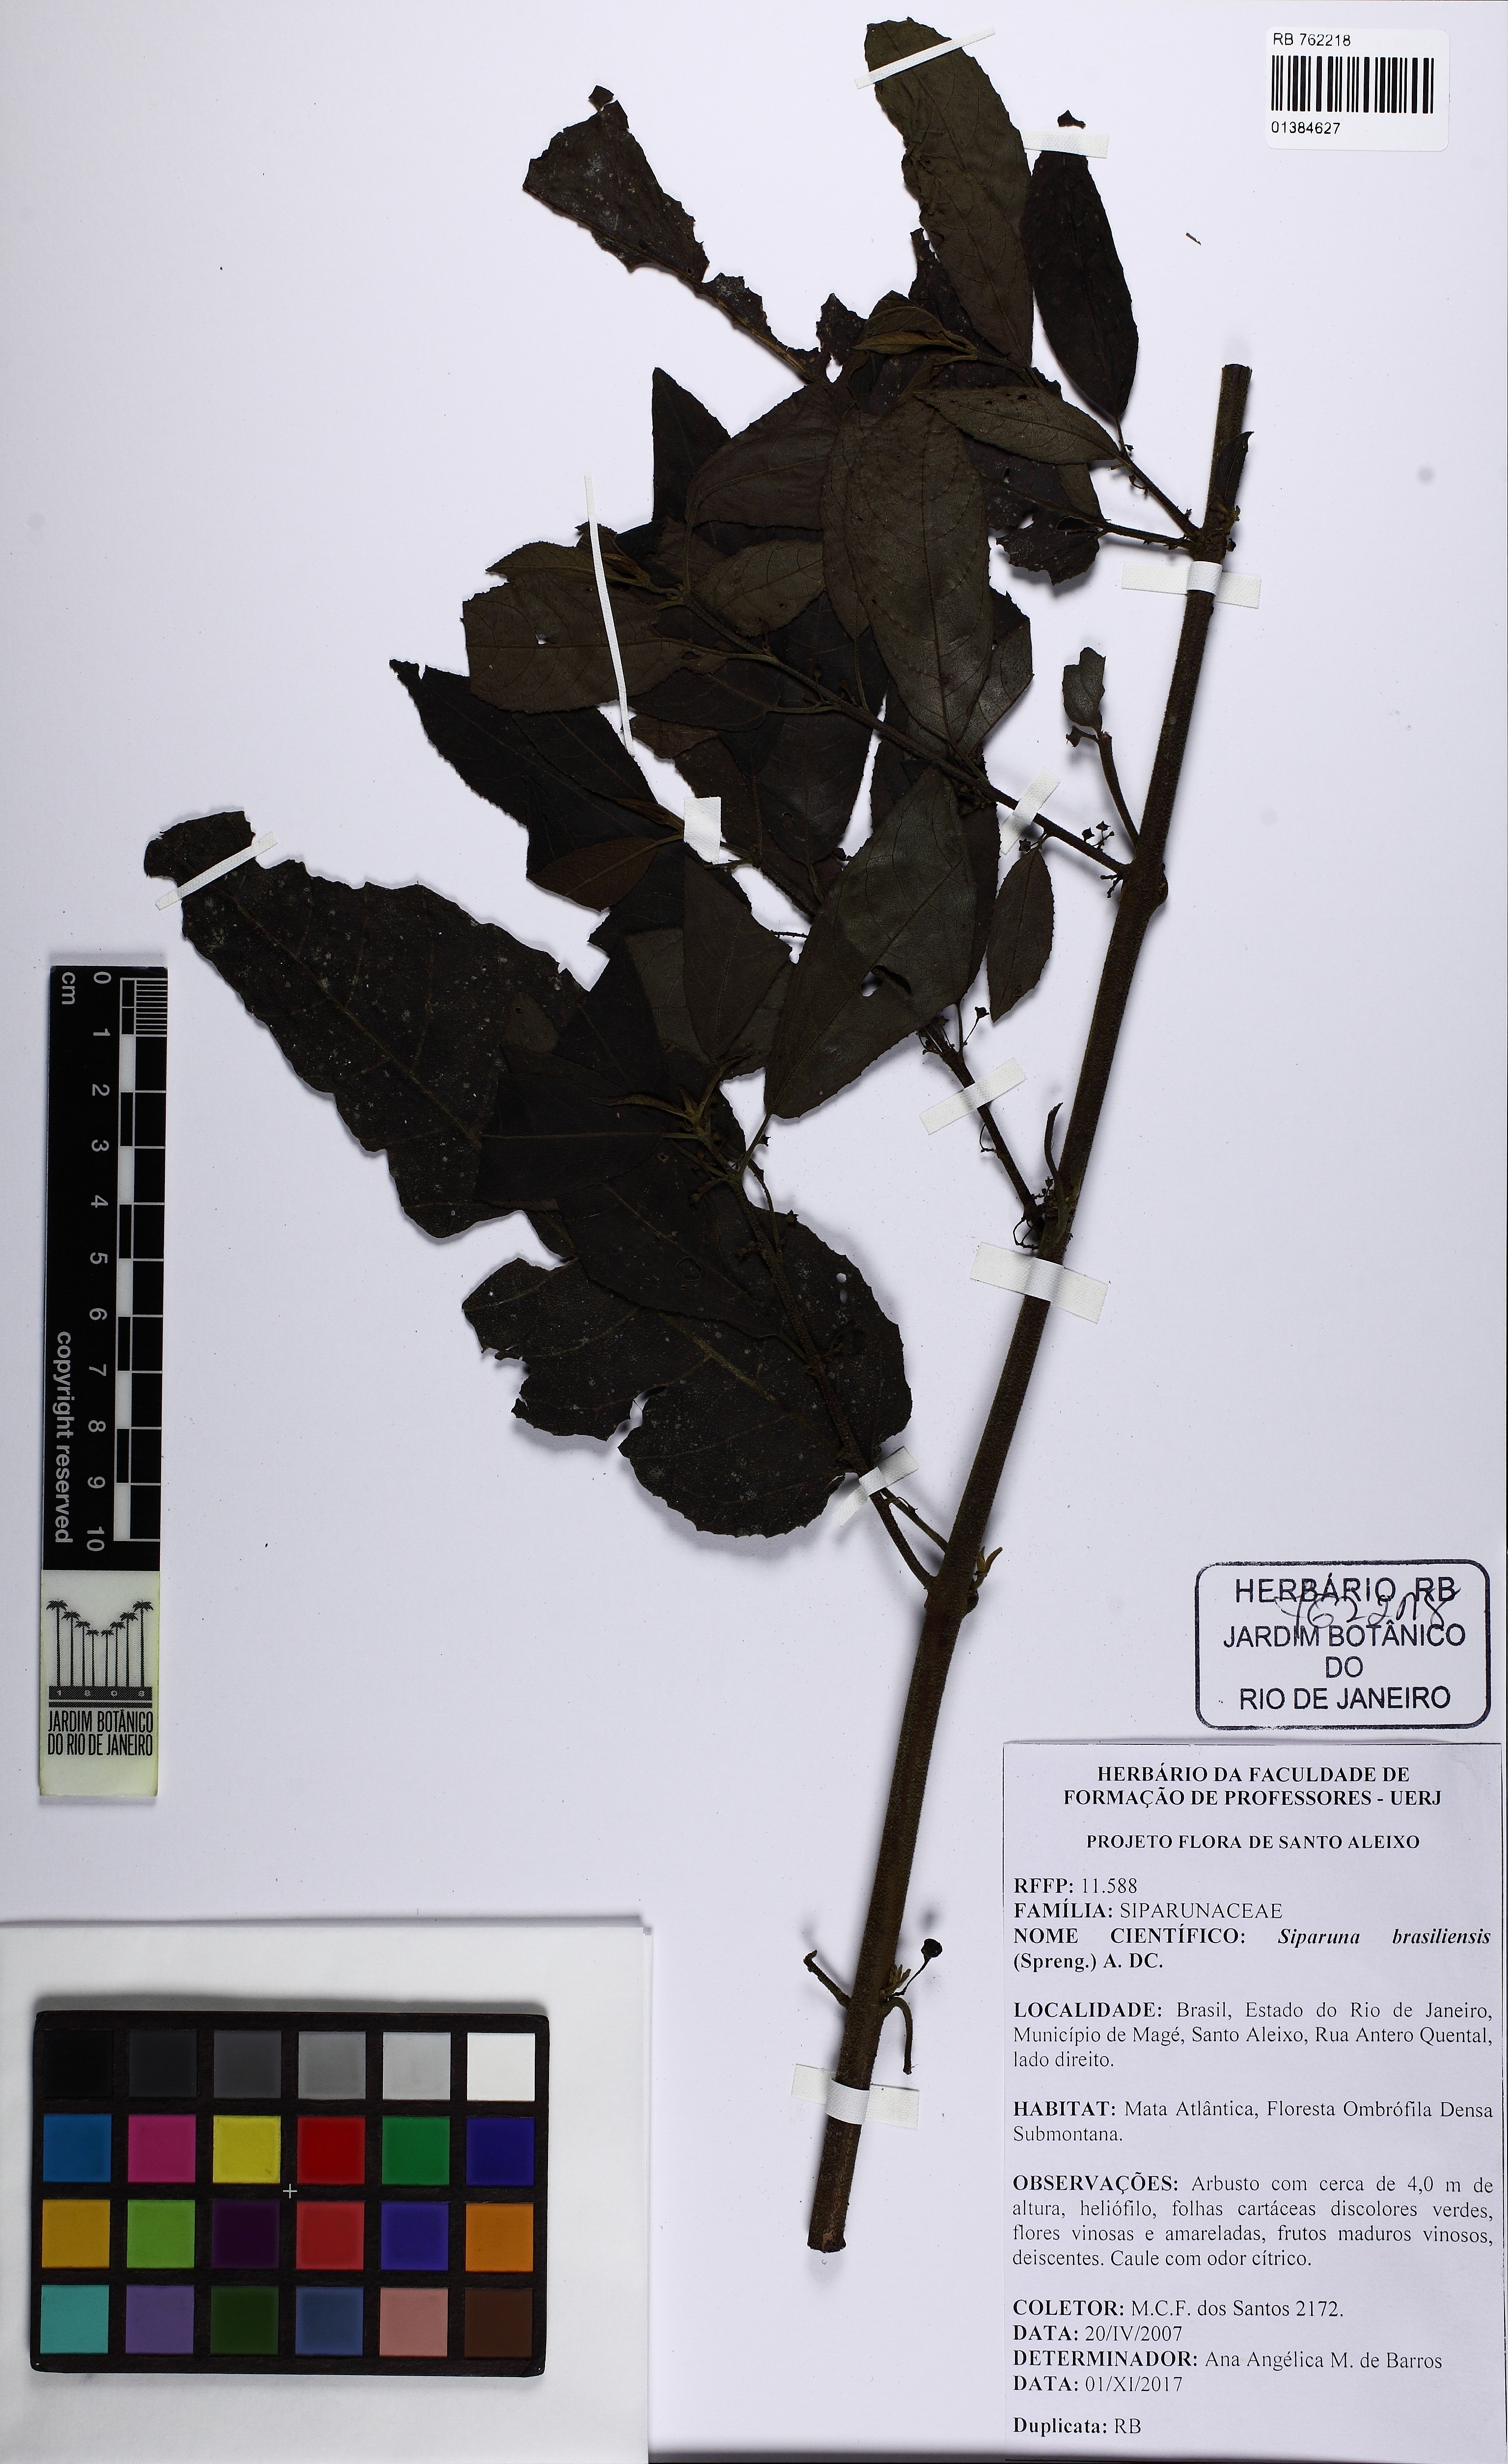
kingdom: Plantae
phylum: Tracheophyta
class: Magnoliopsida
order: Laurales
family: Siparunaceae
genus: Siparuna
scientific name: Siparuna brasiliensis
